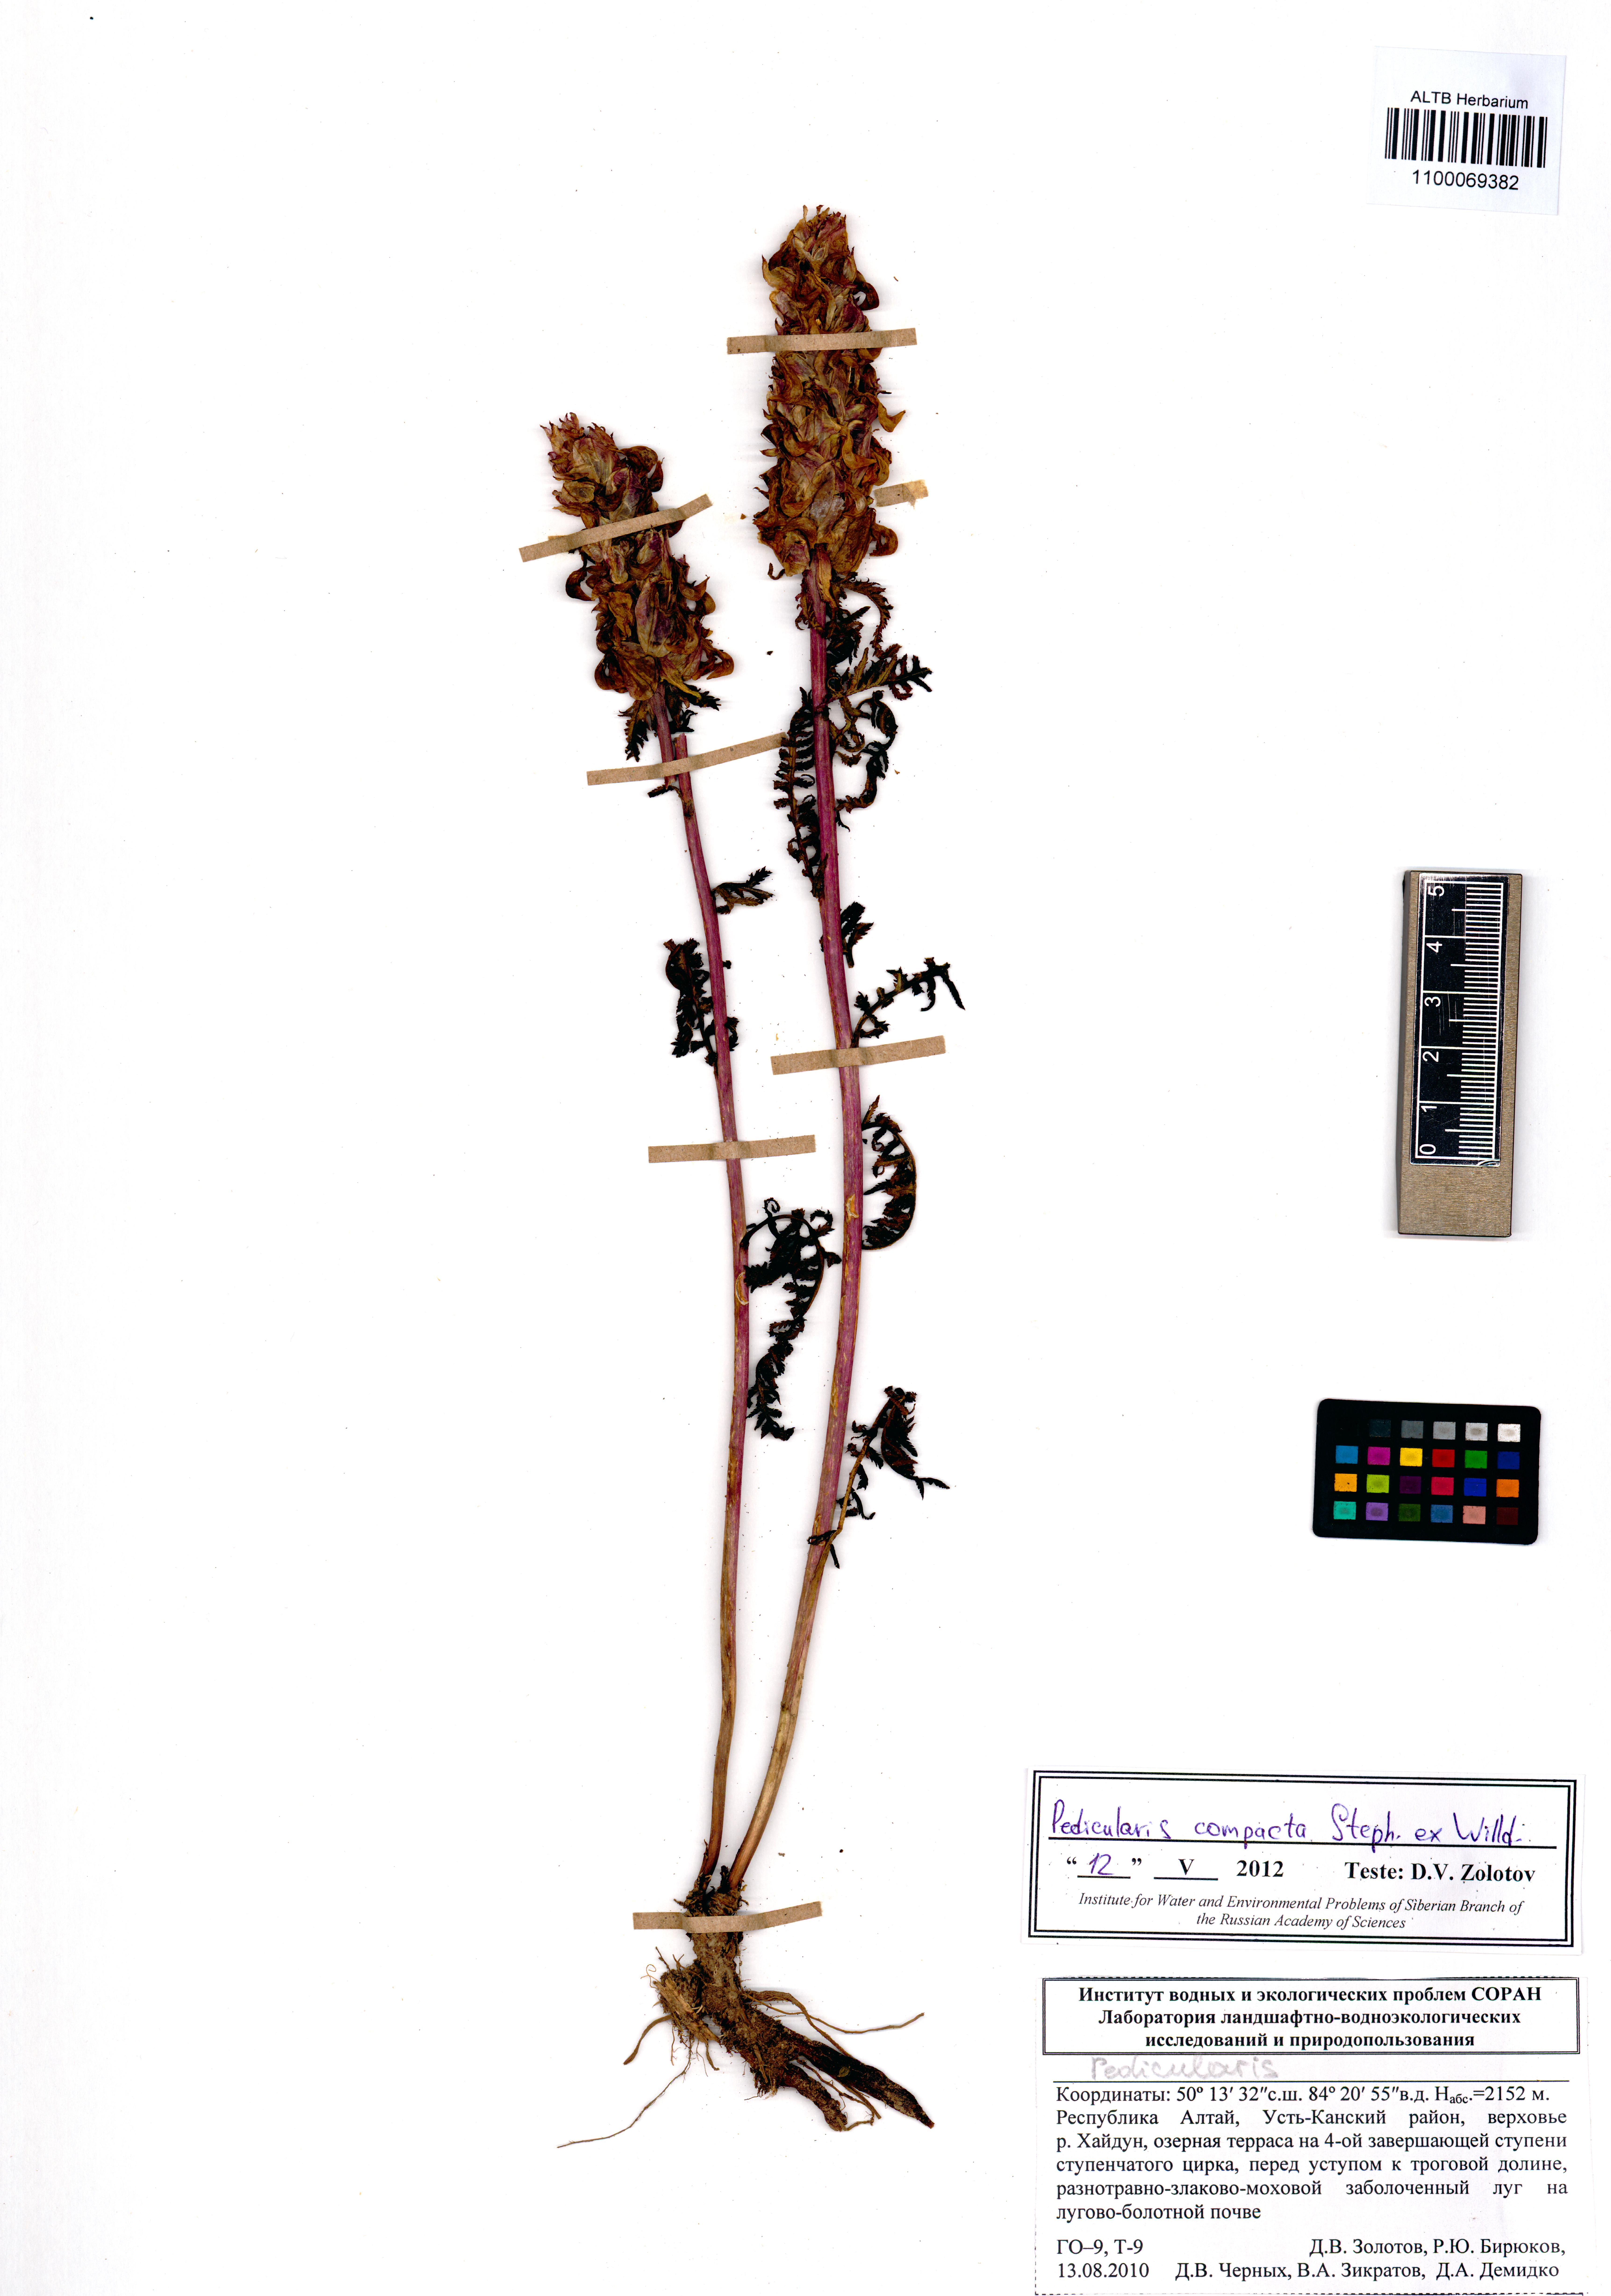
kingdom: Plantae
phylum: Tracheophyta
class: Magnoliopsida
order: Lamiales
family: Orobanchaceae
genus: Pedicularis
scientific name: Pedicularis compacta
